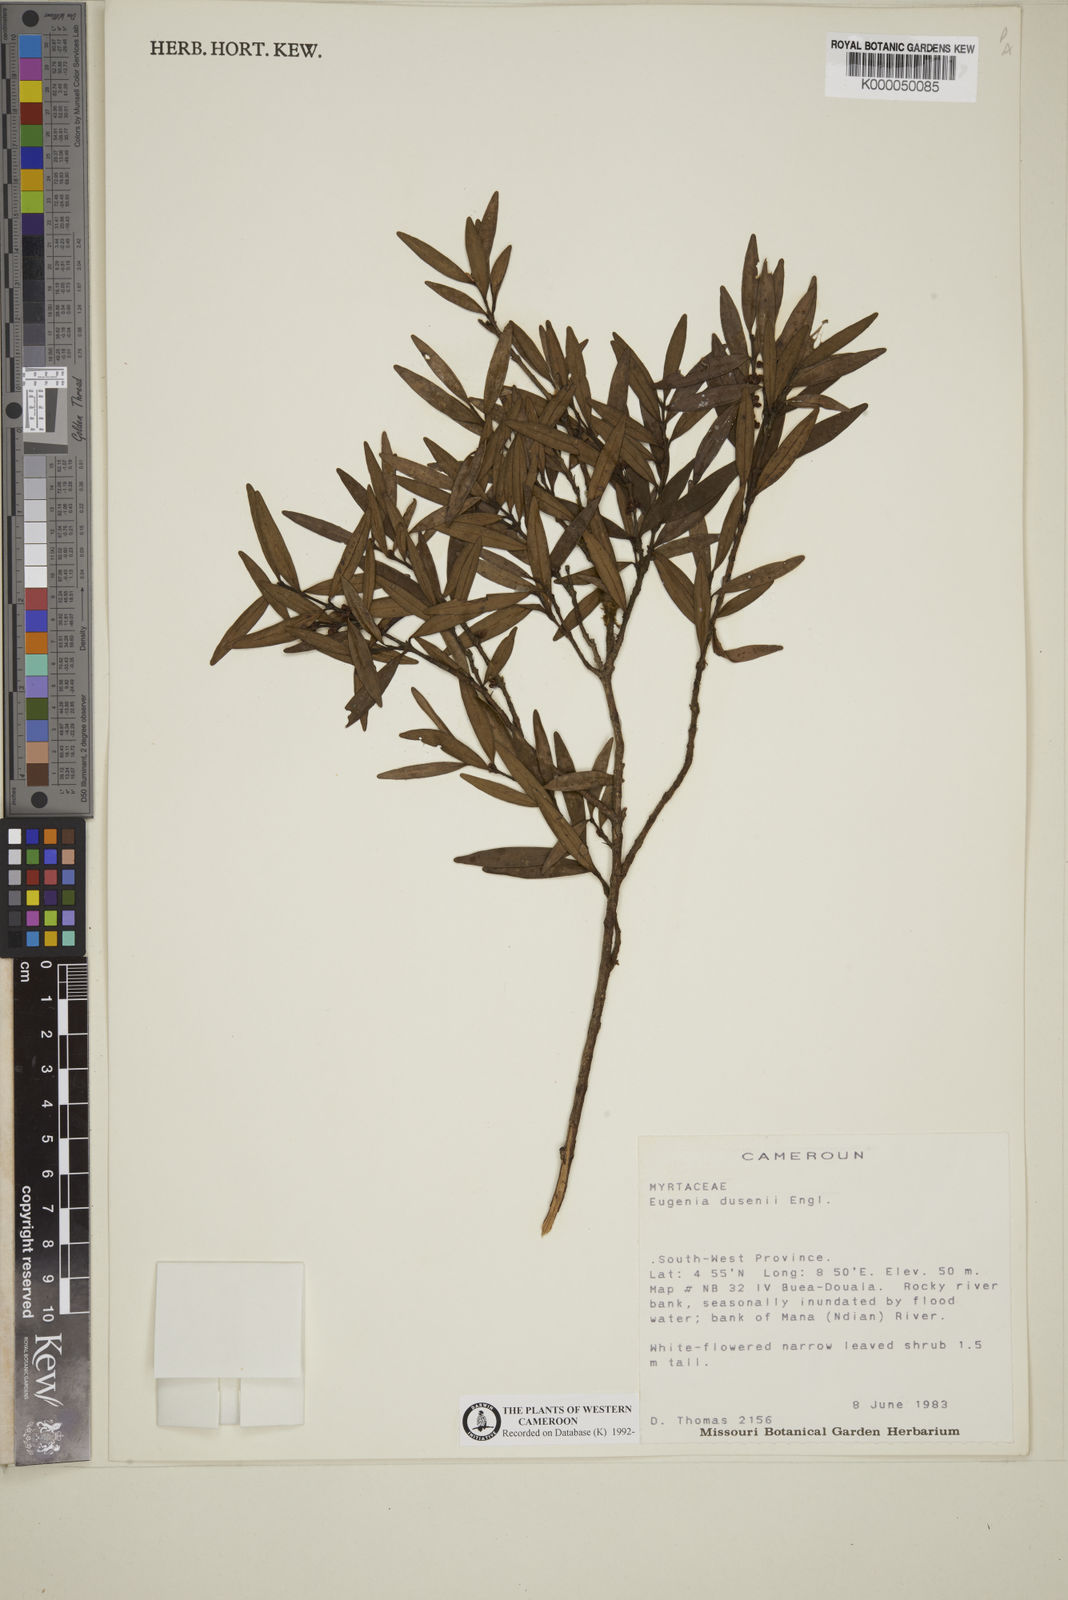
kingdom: Plantae
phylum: Tracheophyta
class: Magnoliopsida
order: Myrtales
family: Myrtaceae
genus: Eugenia
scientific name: Eugenia dusenii
